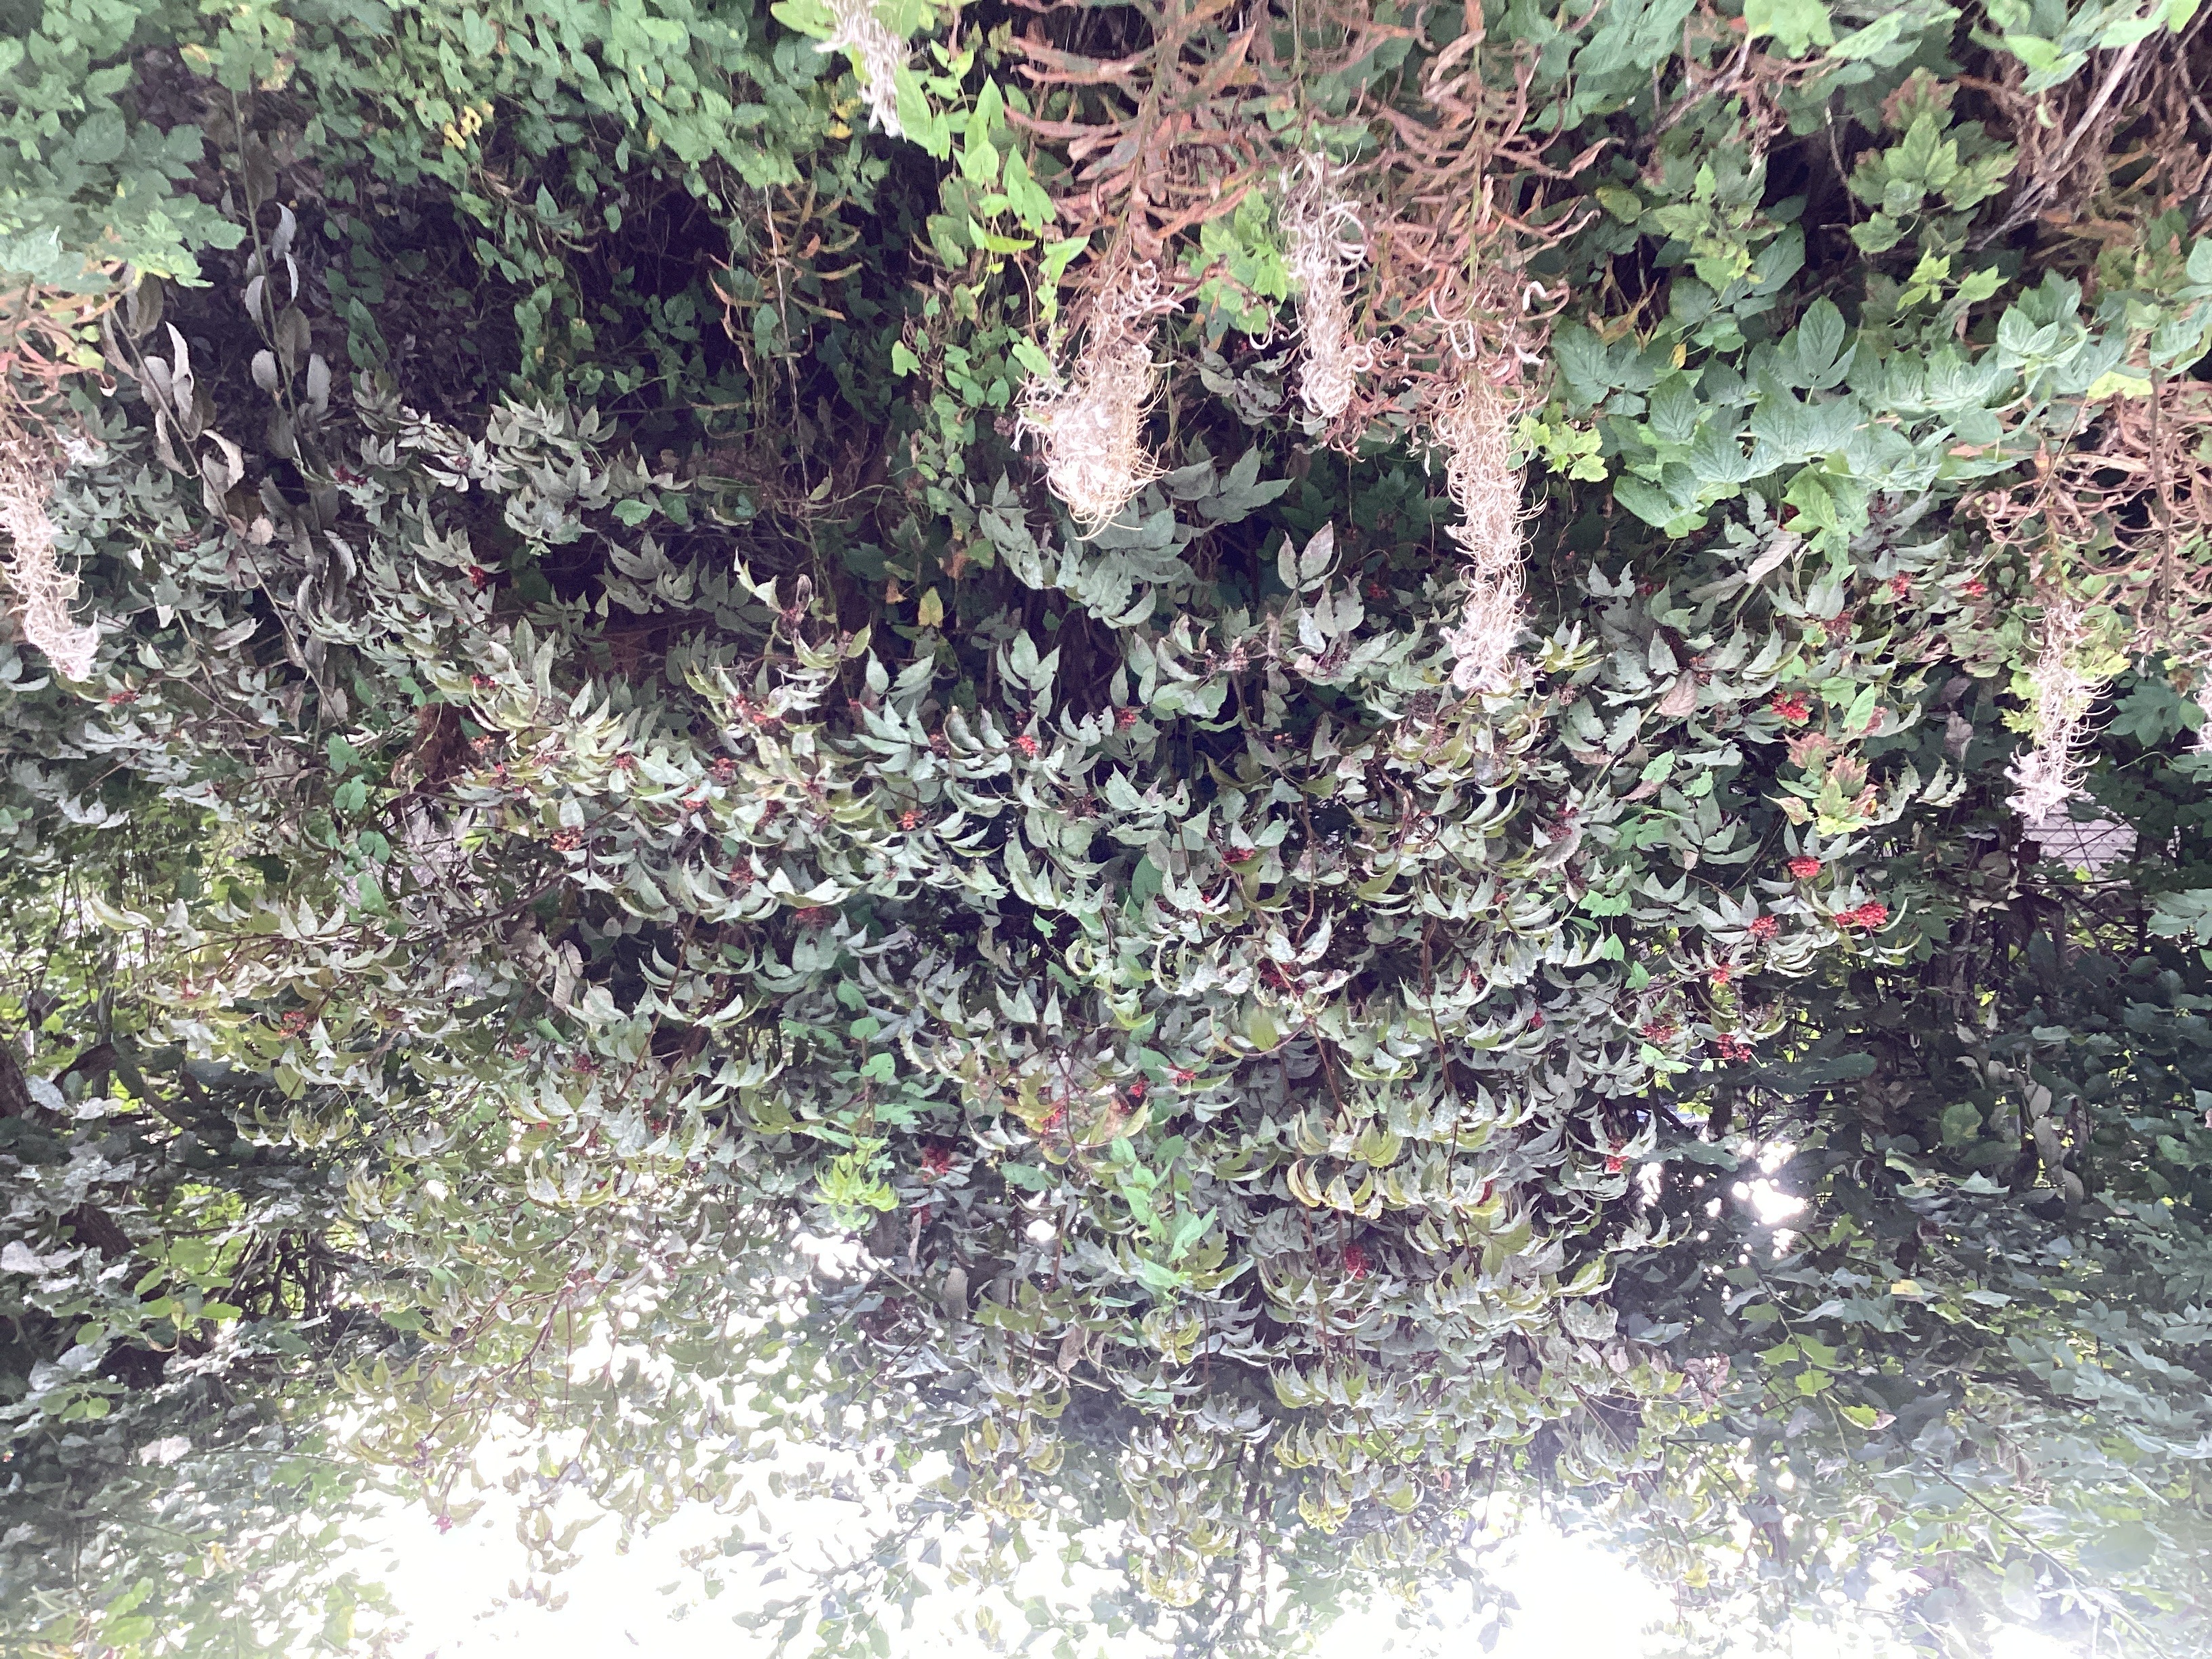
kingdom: Plantae
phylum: Tracheophyta
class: Magnoliopsida
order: Dipsacales
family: Viburnaceae
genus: Sambucus
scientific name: Sambucus racemosa
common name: rødhyll
